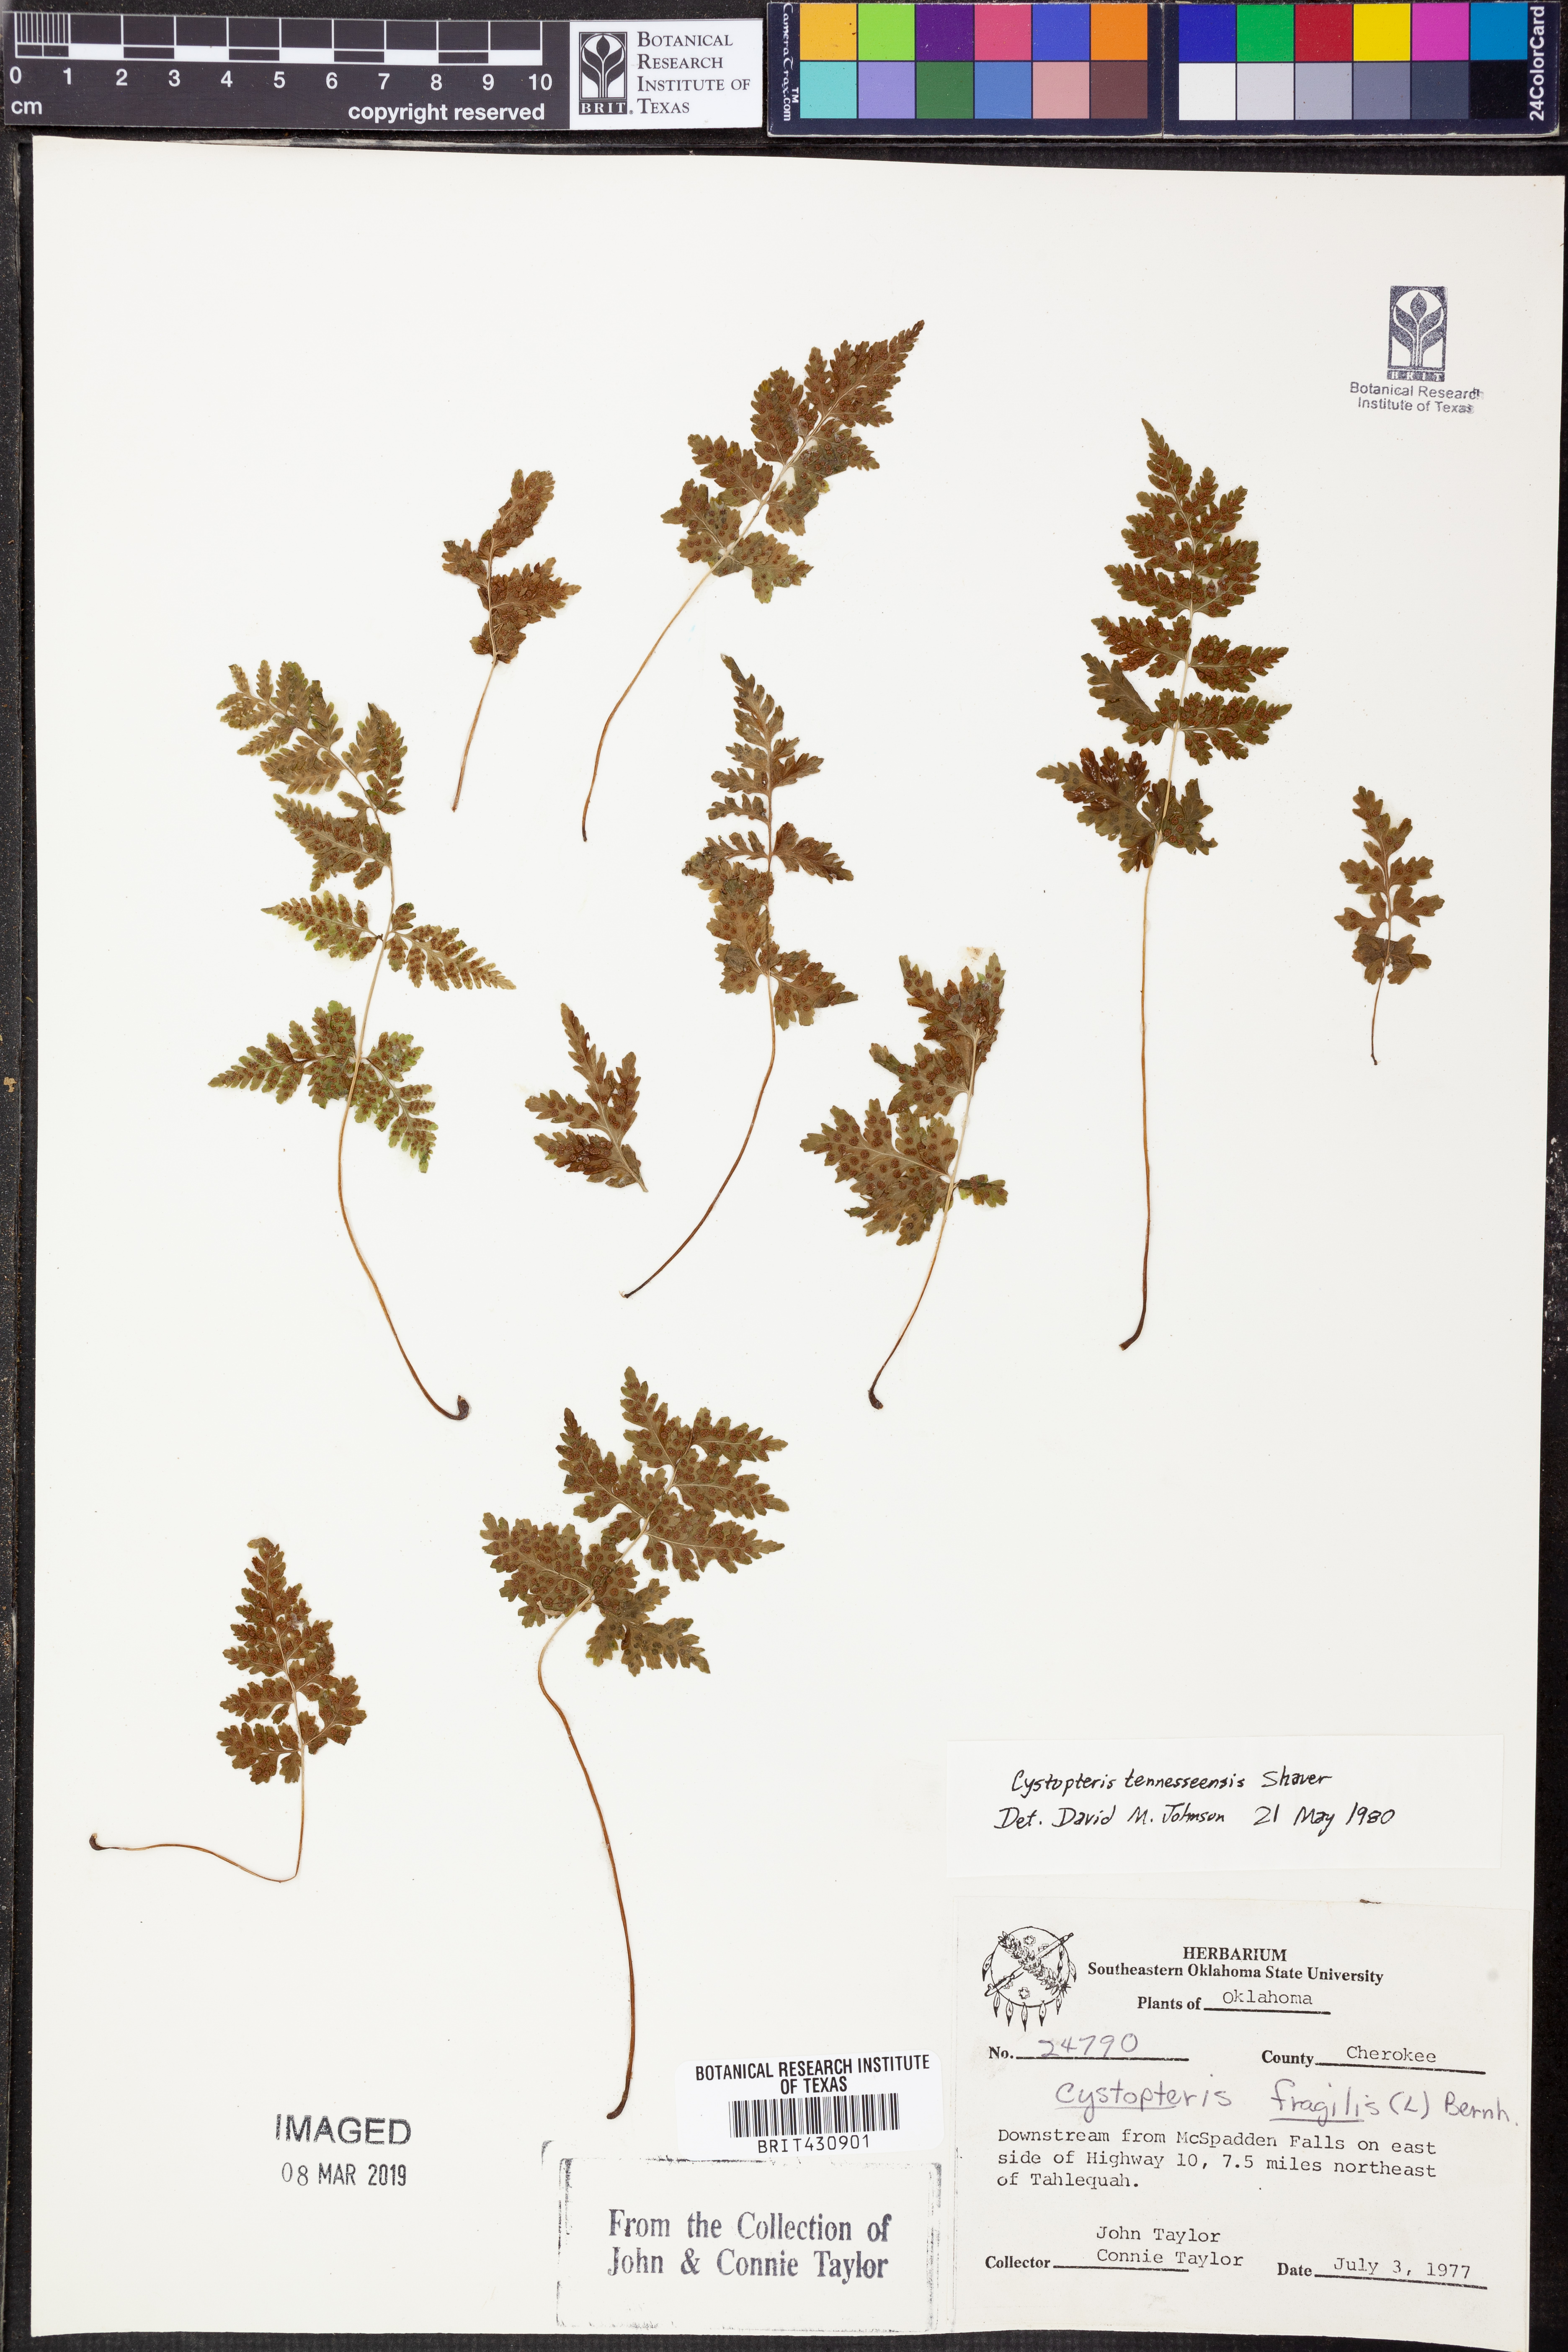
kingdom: Plantae
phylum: Tracheophyta
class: Polypodiopsida
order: Polypodiales
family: Cystopteridaceae
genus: Cystopteris
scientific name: Cystopteris tennesseensis
